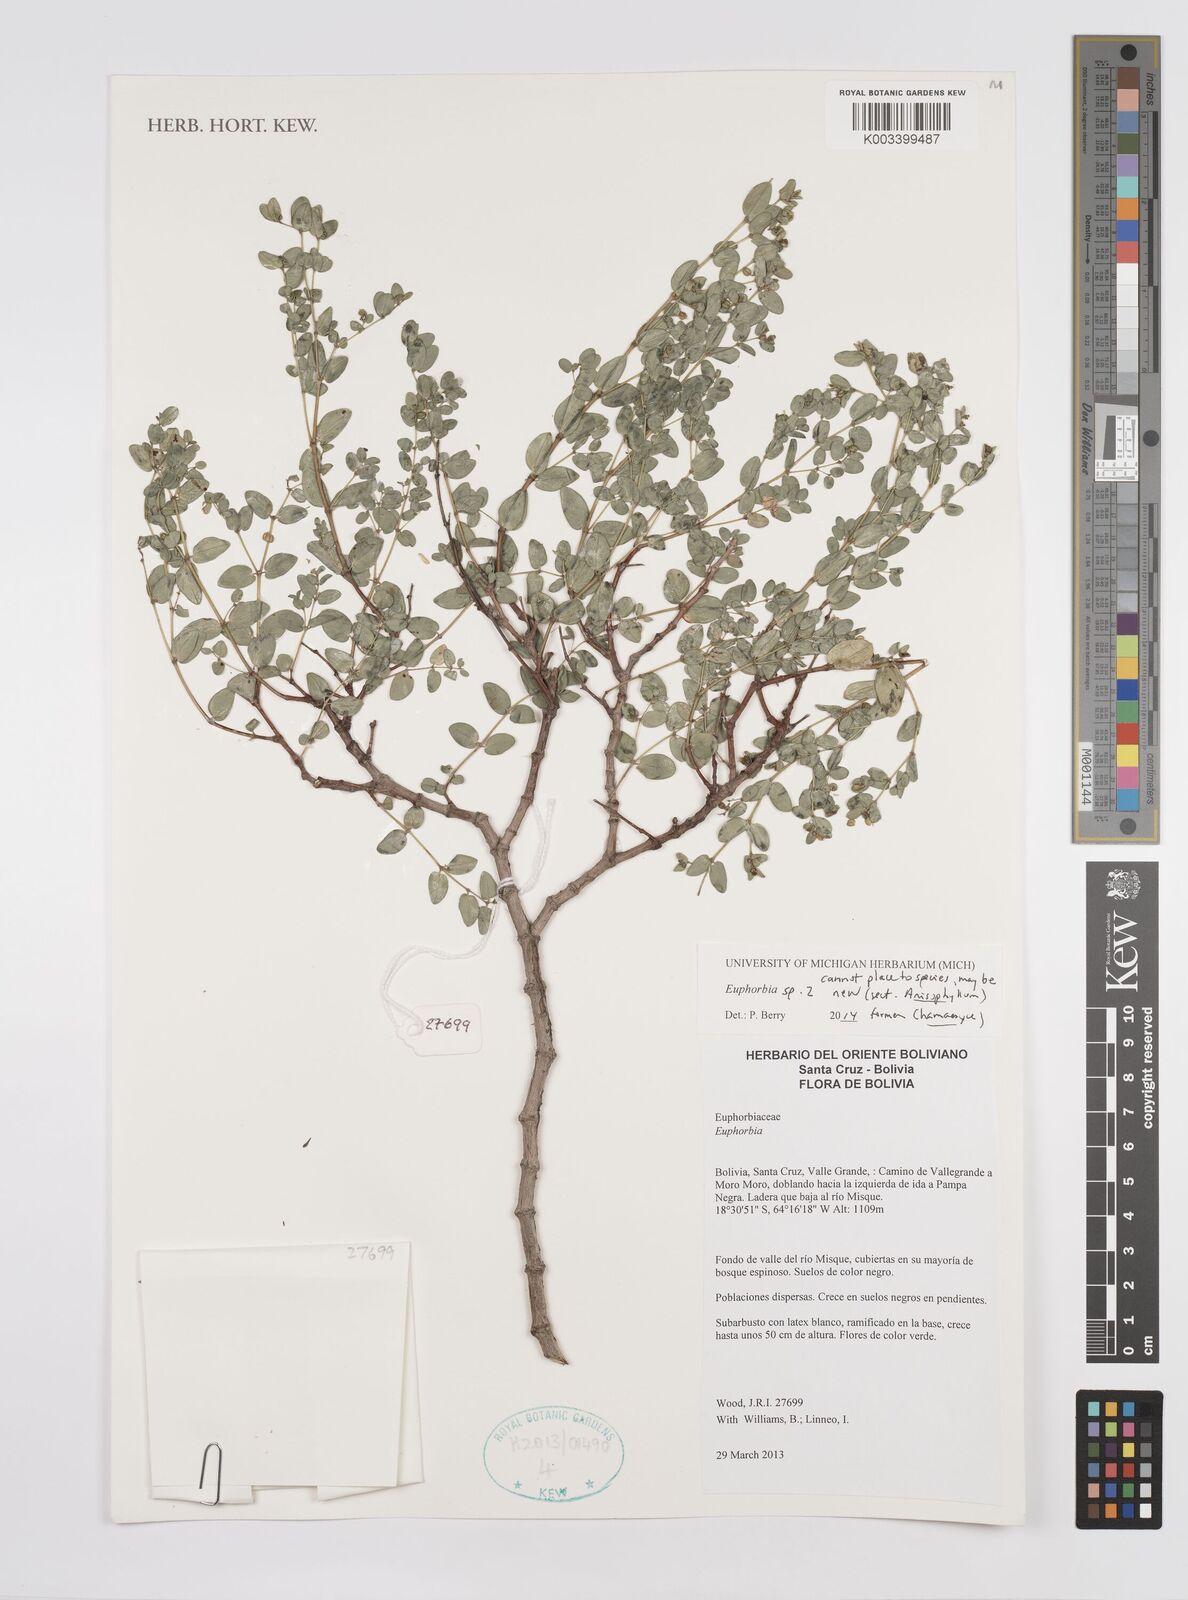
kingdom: Plantae
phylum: Tracheophyta
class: Magnoliopsida
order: Malpighiales
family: Euphorbiaceae
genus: Euphorbia
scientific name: Euphorbia
